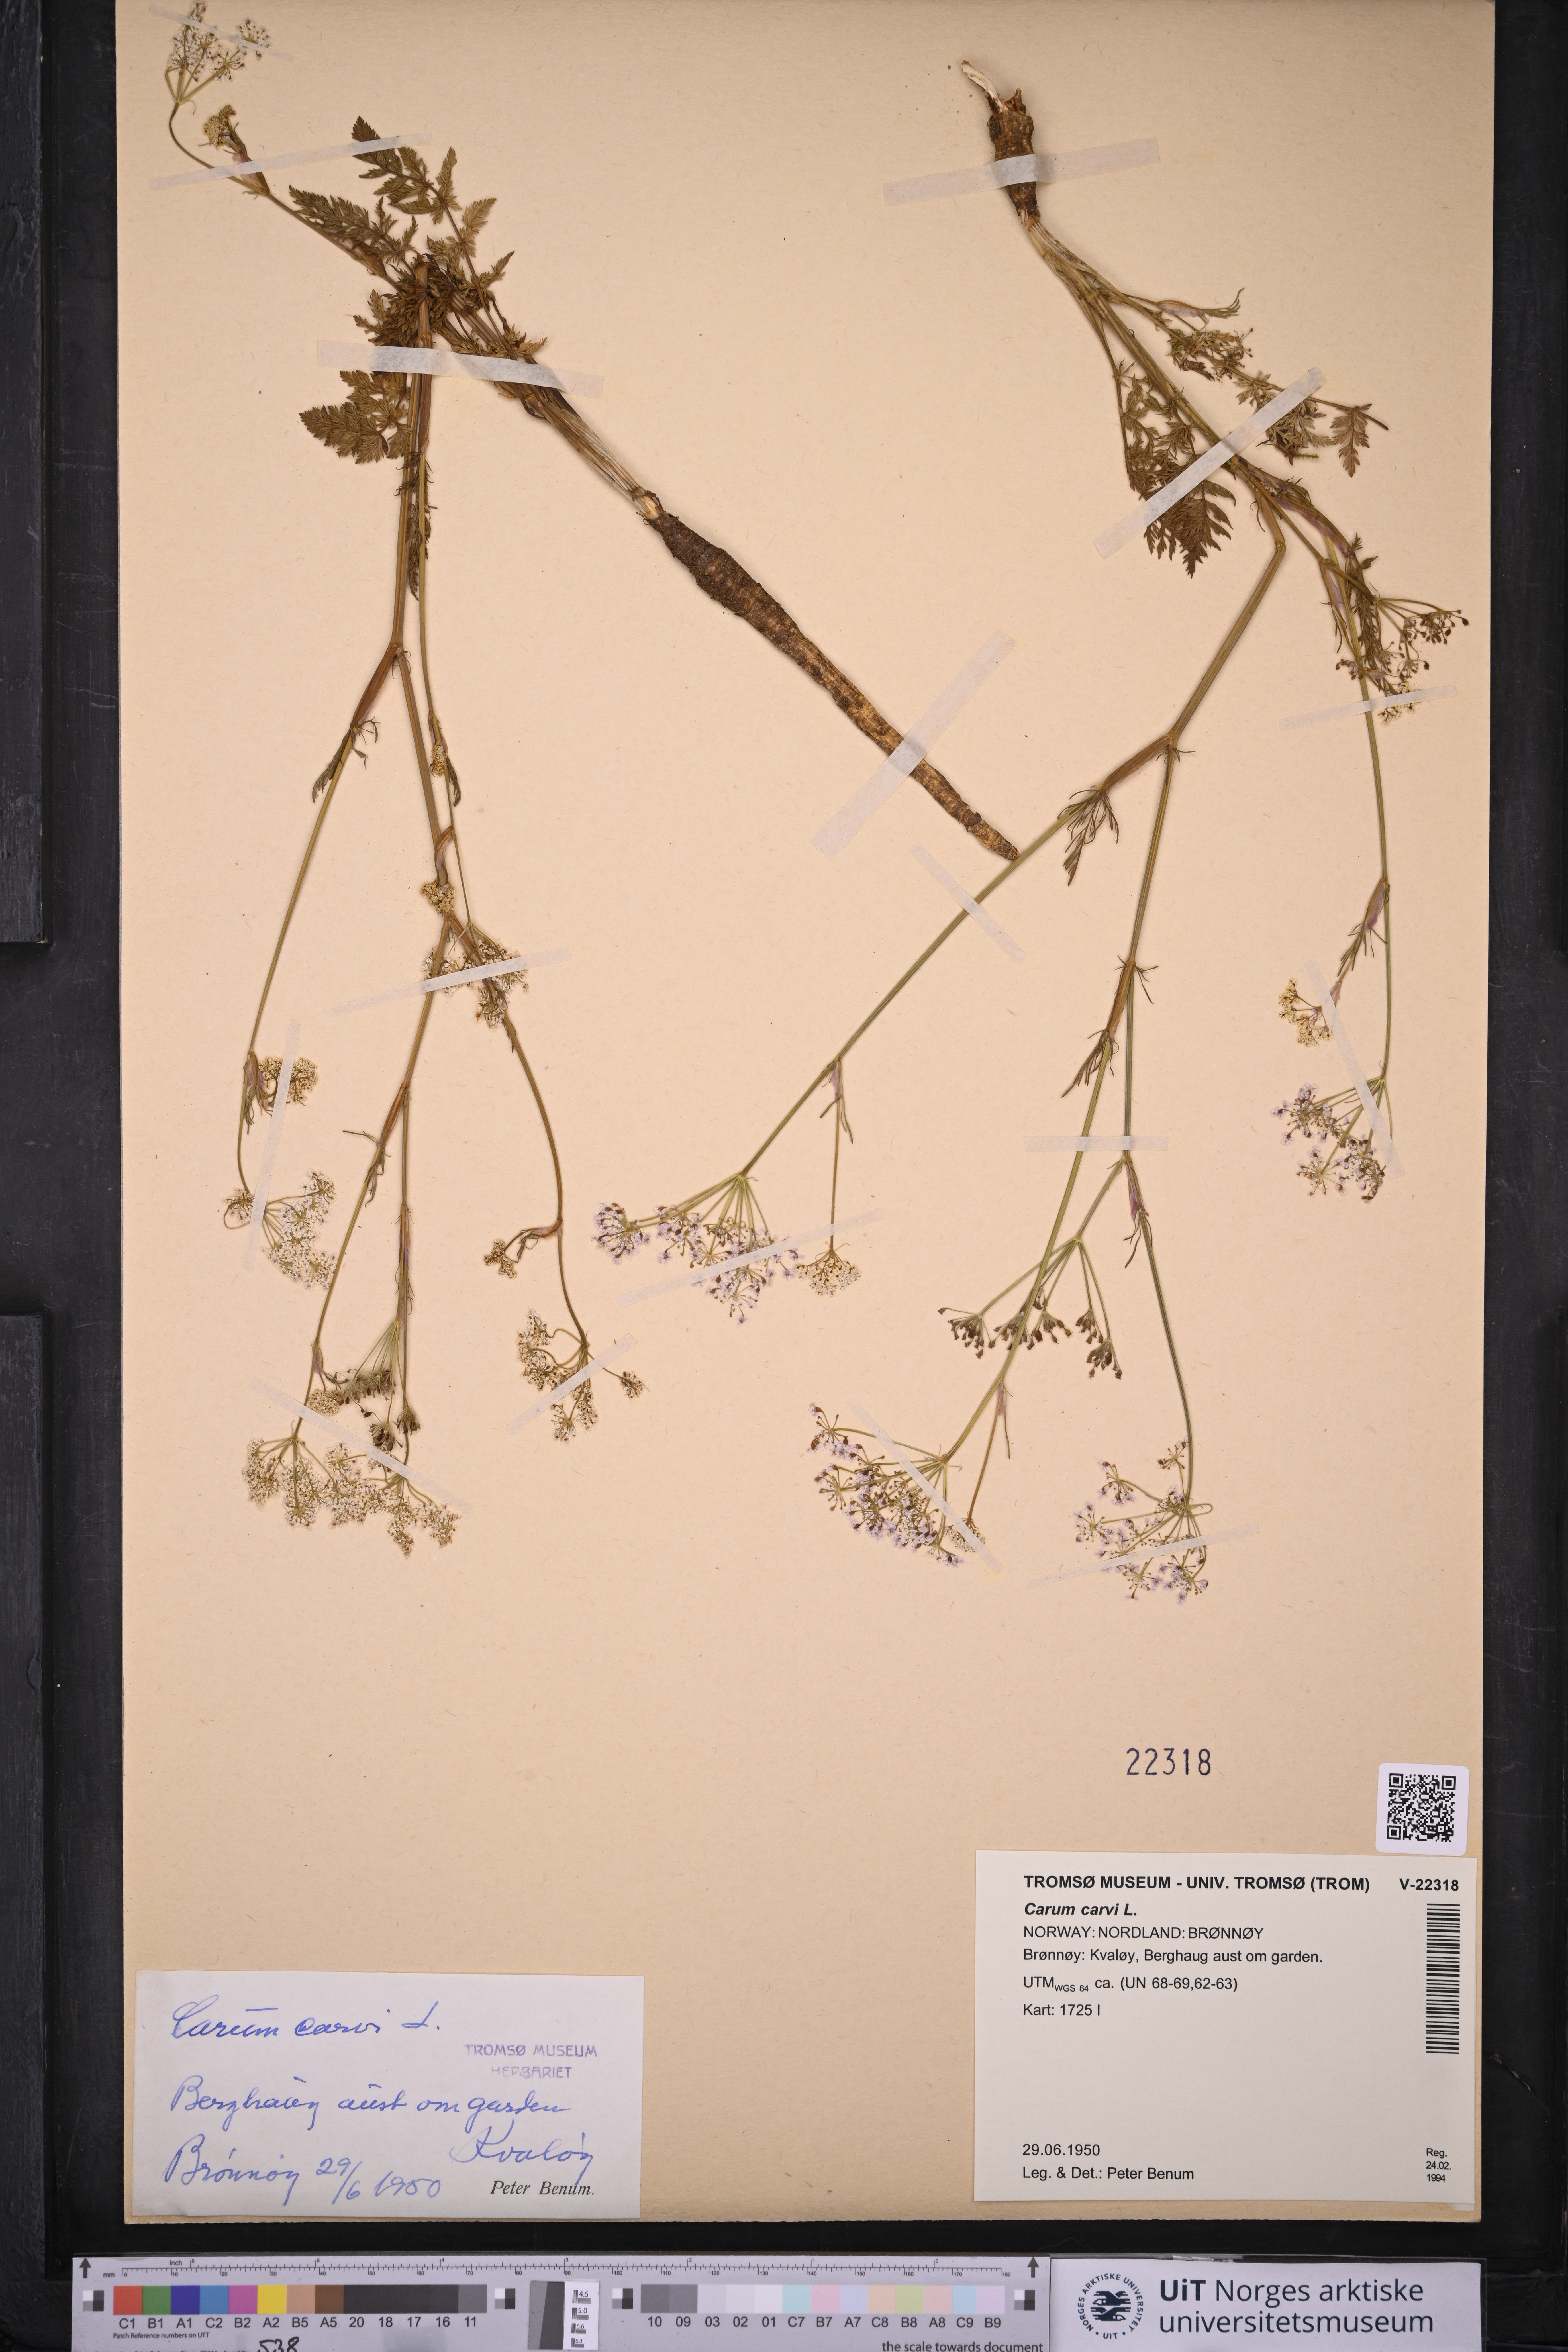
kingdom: Plantae
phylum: Tracheophyta
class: Magnoliopsida
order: Apiales
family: Apiaceae
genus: Carum
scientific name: Carum carvi
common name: Caraway
